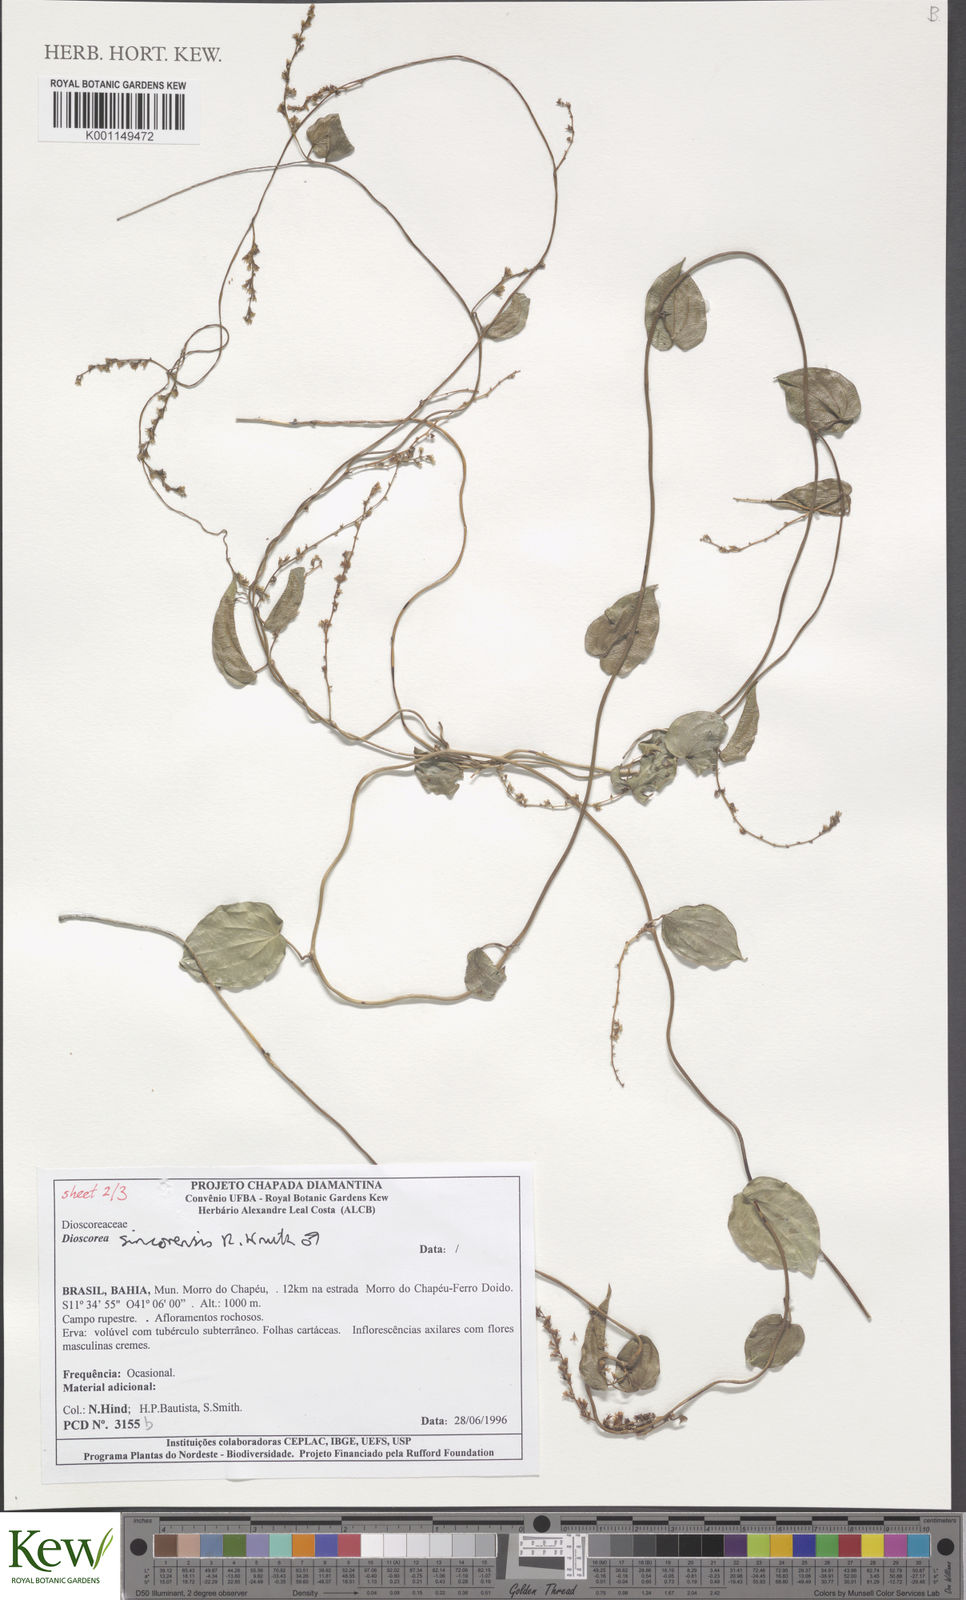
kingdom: Plantae
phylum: Tracheophyta
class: Liliopsida
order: Dioscoreales
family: Dioscoreaceae
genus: Dioscorea
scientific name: Dioscorea sincorensis
